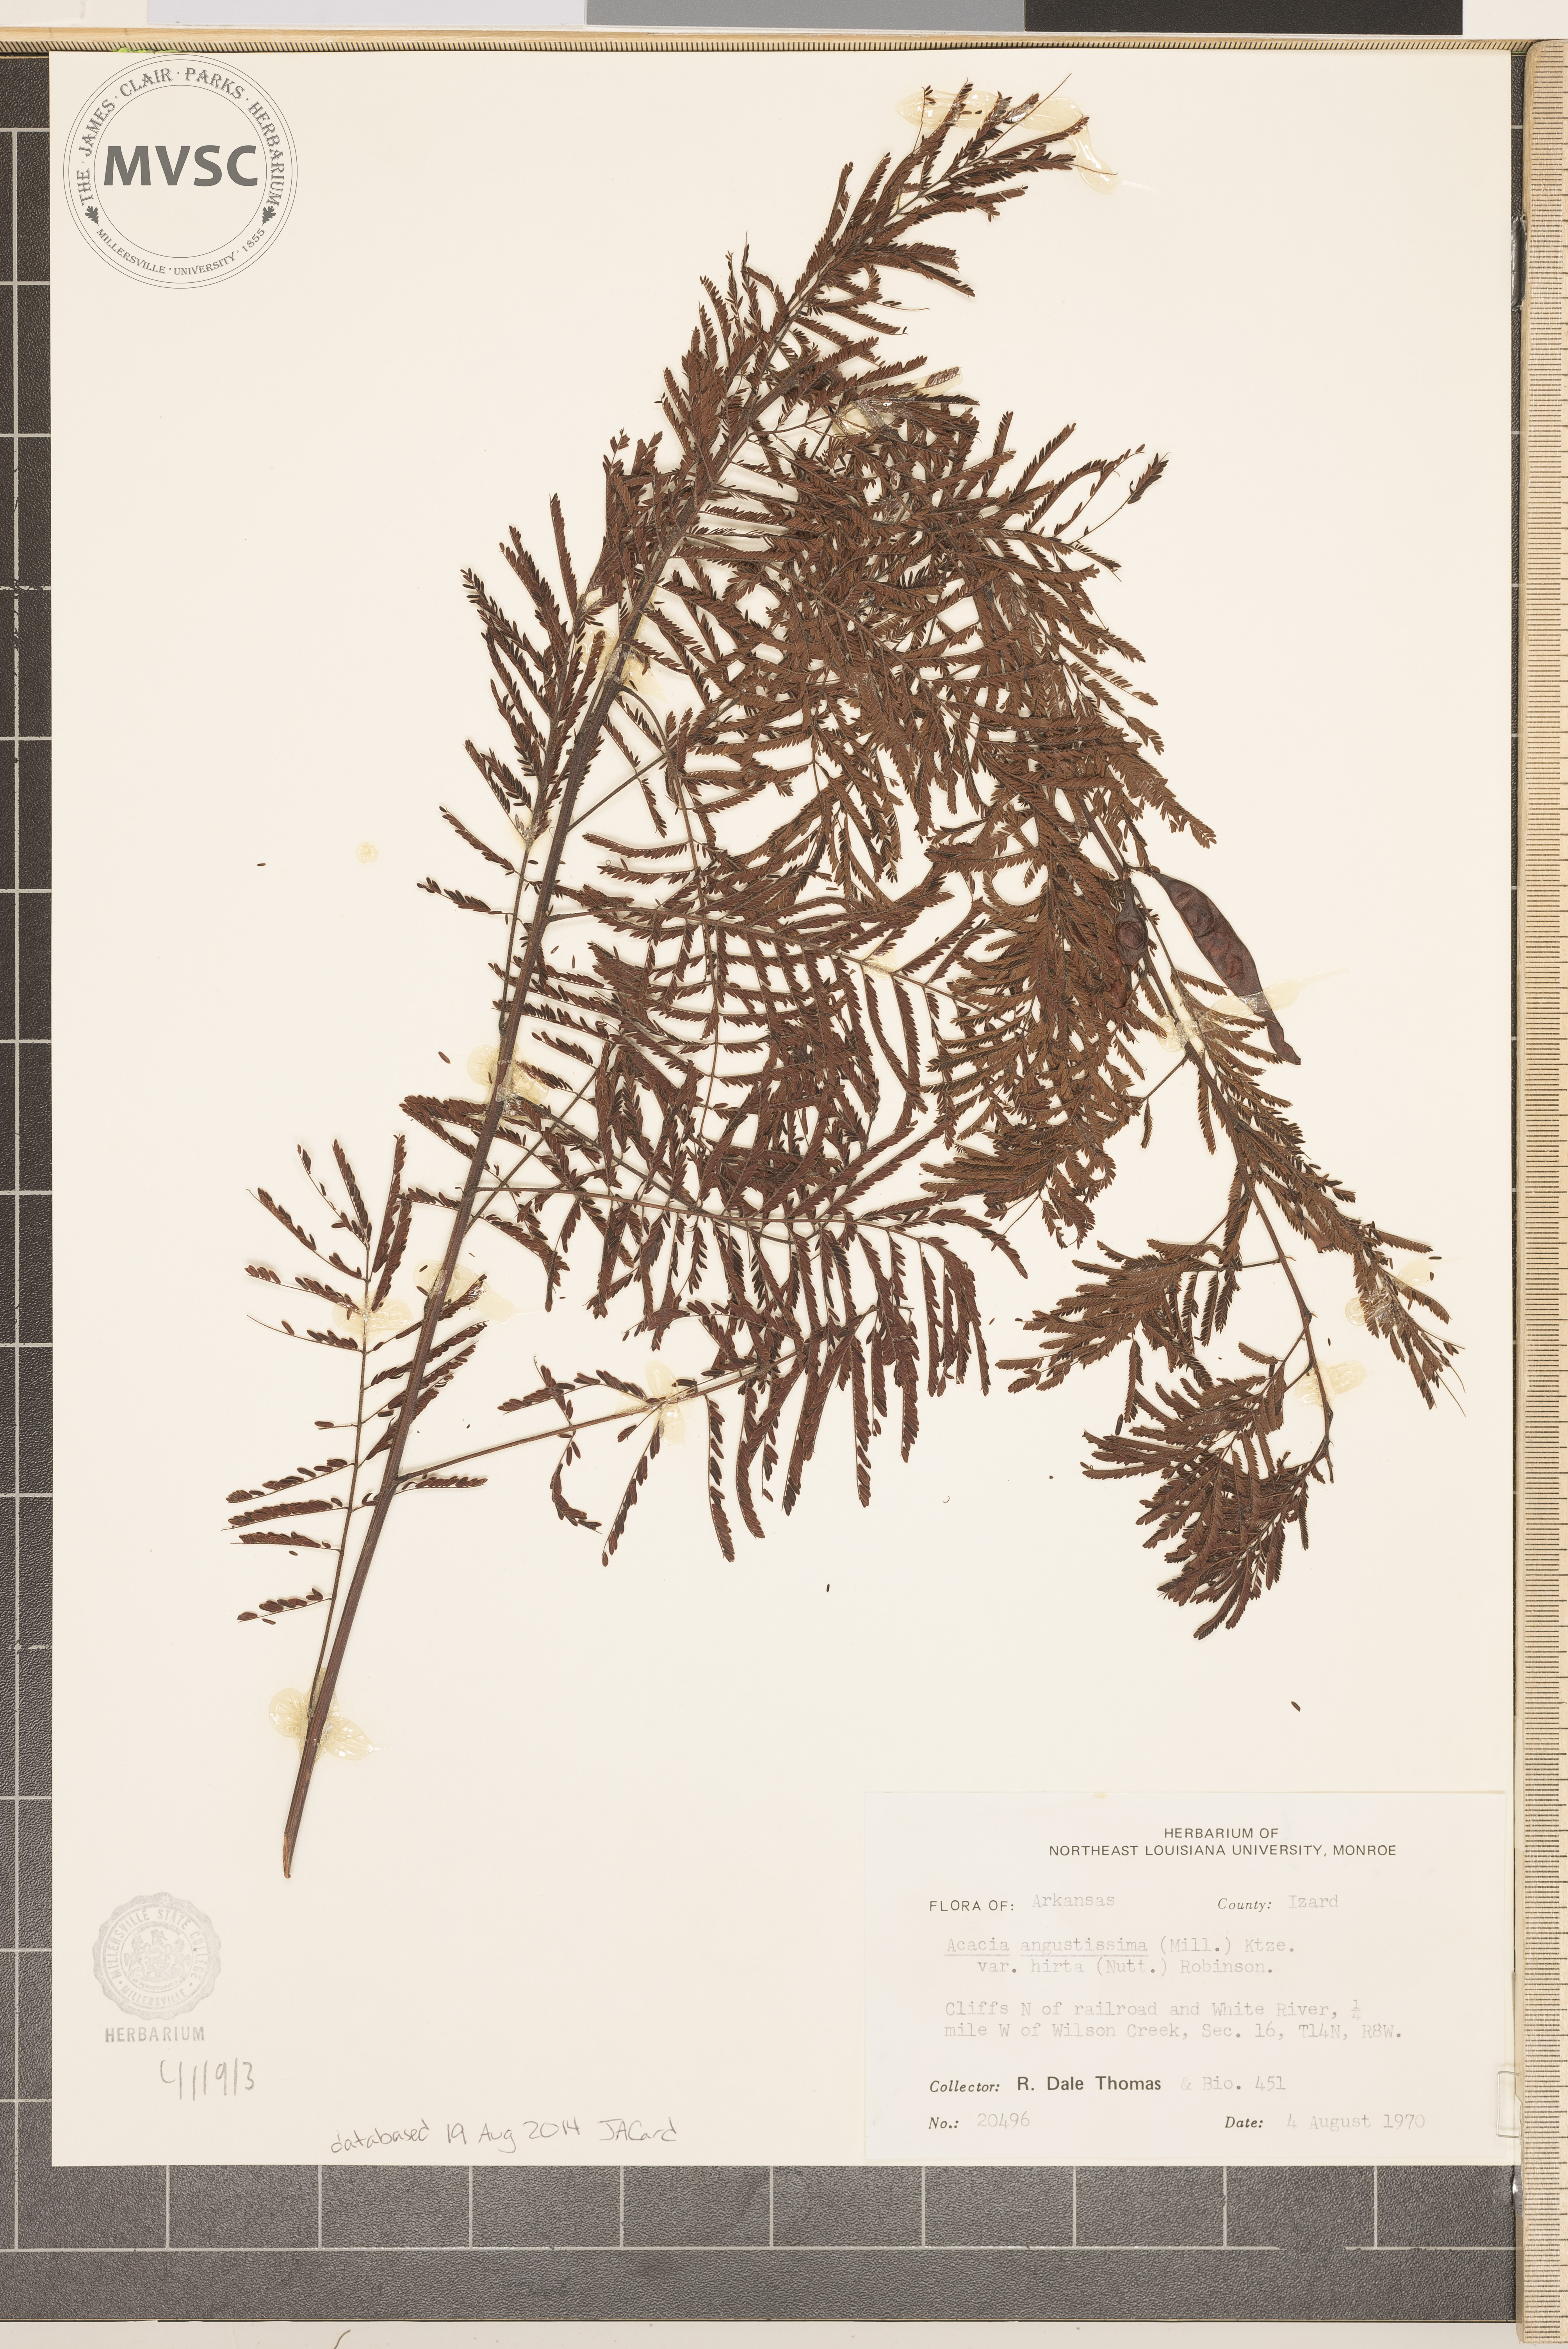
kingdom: Plantae
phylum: Tracheophyta
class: Magnoliopsida
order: Fabales
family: Fabaceae
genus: Acaciella
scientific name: Acaciella angustissima
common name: Prairie acacia
